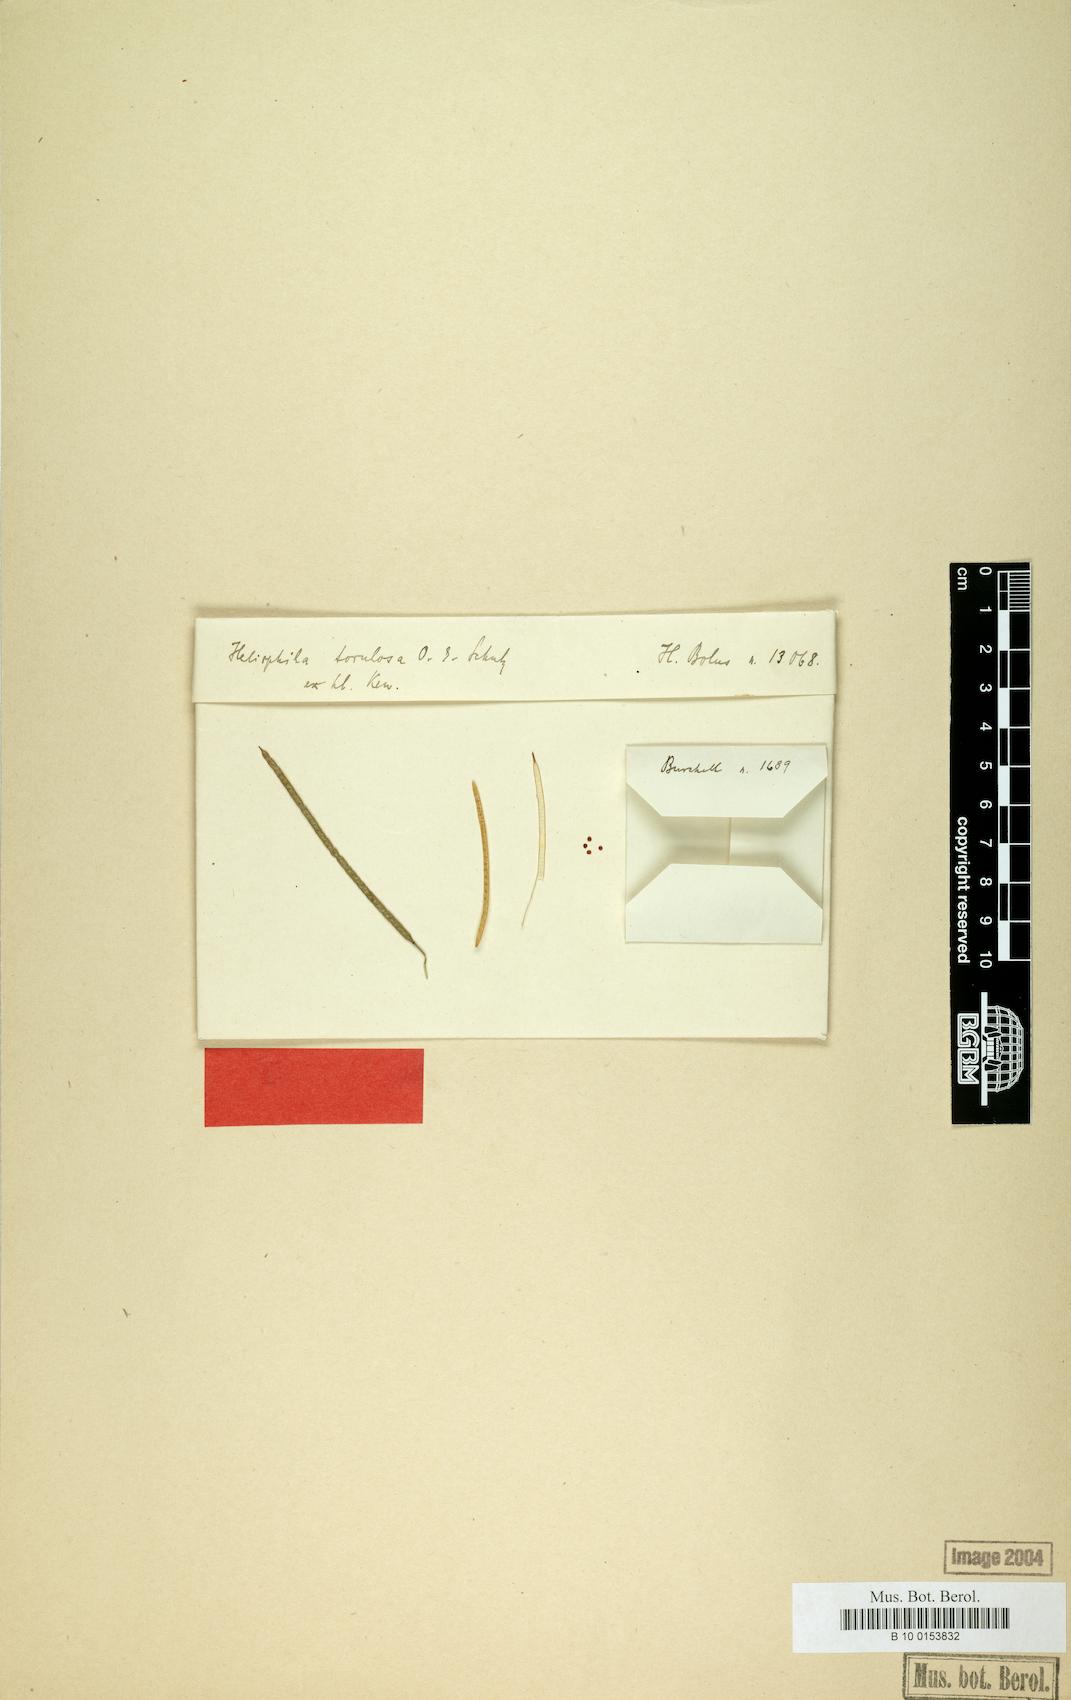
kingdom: Plantae
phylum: Tracheophyta
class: Magnoliopsida
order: Brassicales
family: Brassicaceae
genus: Heliophila
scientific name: Heliophila remotiflora
